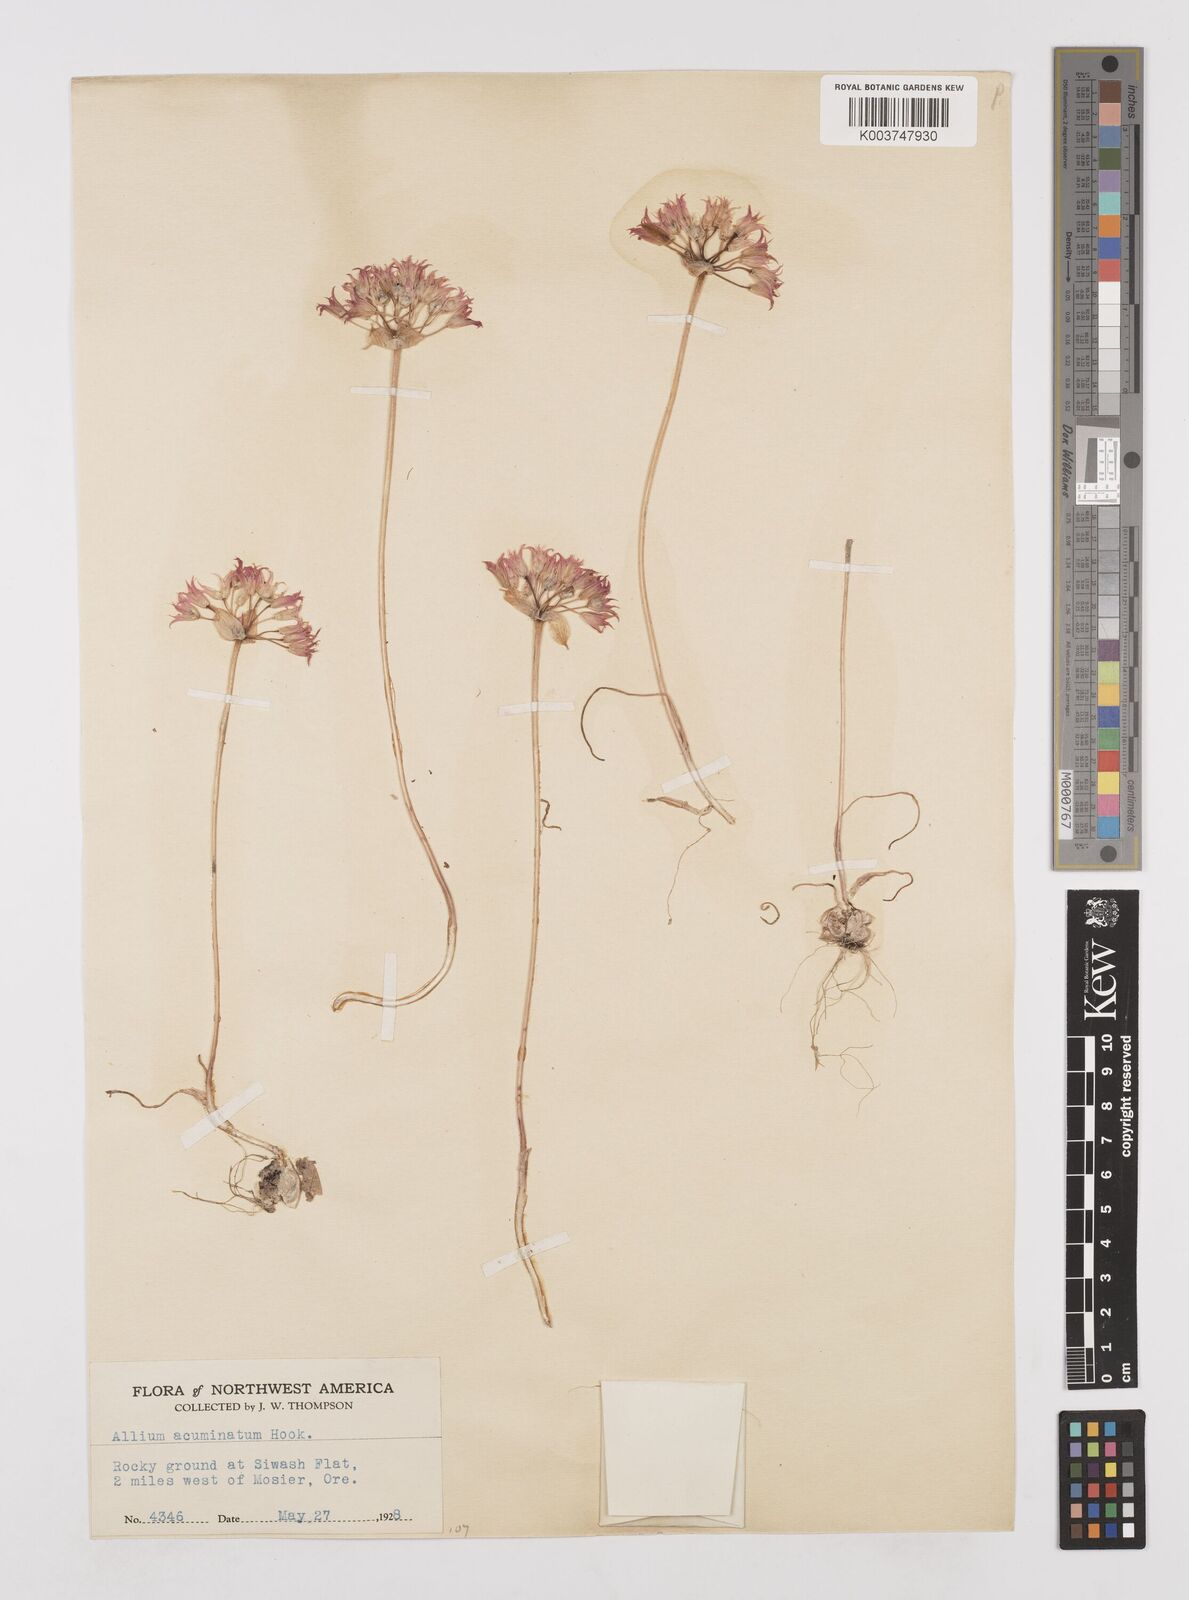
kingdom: Plantae
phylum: Tracheophyta
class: Liliopsida
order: Asparagales
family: Amaryllidaceae
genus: Allium
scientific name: Allium acuminatum
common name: Hooker's onion
